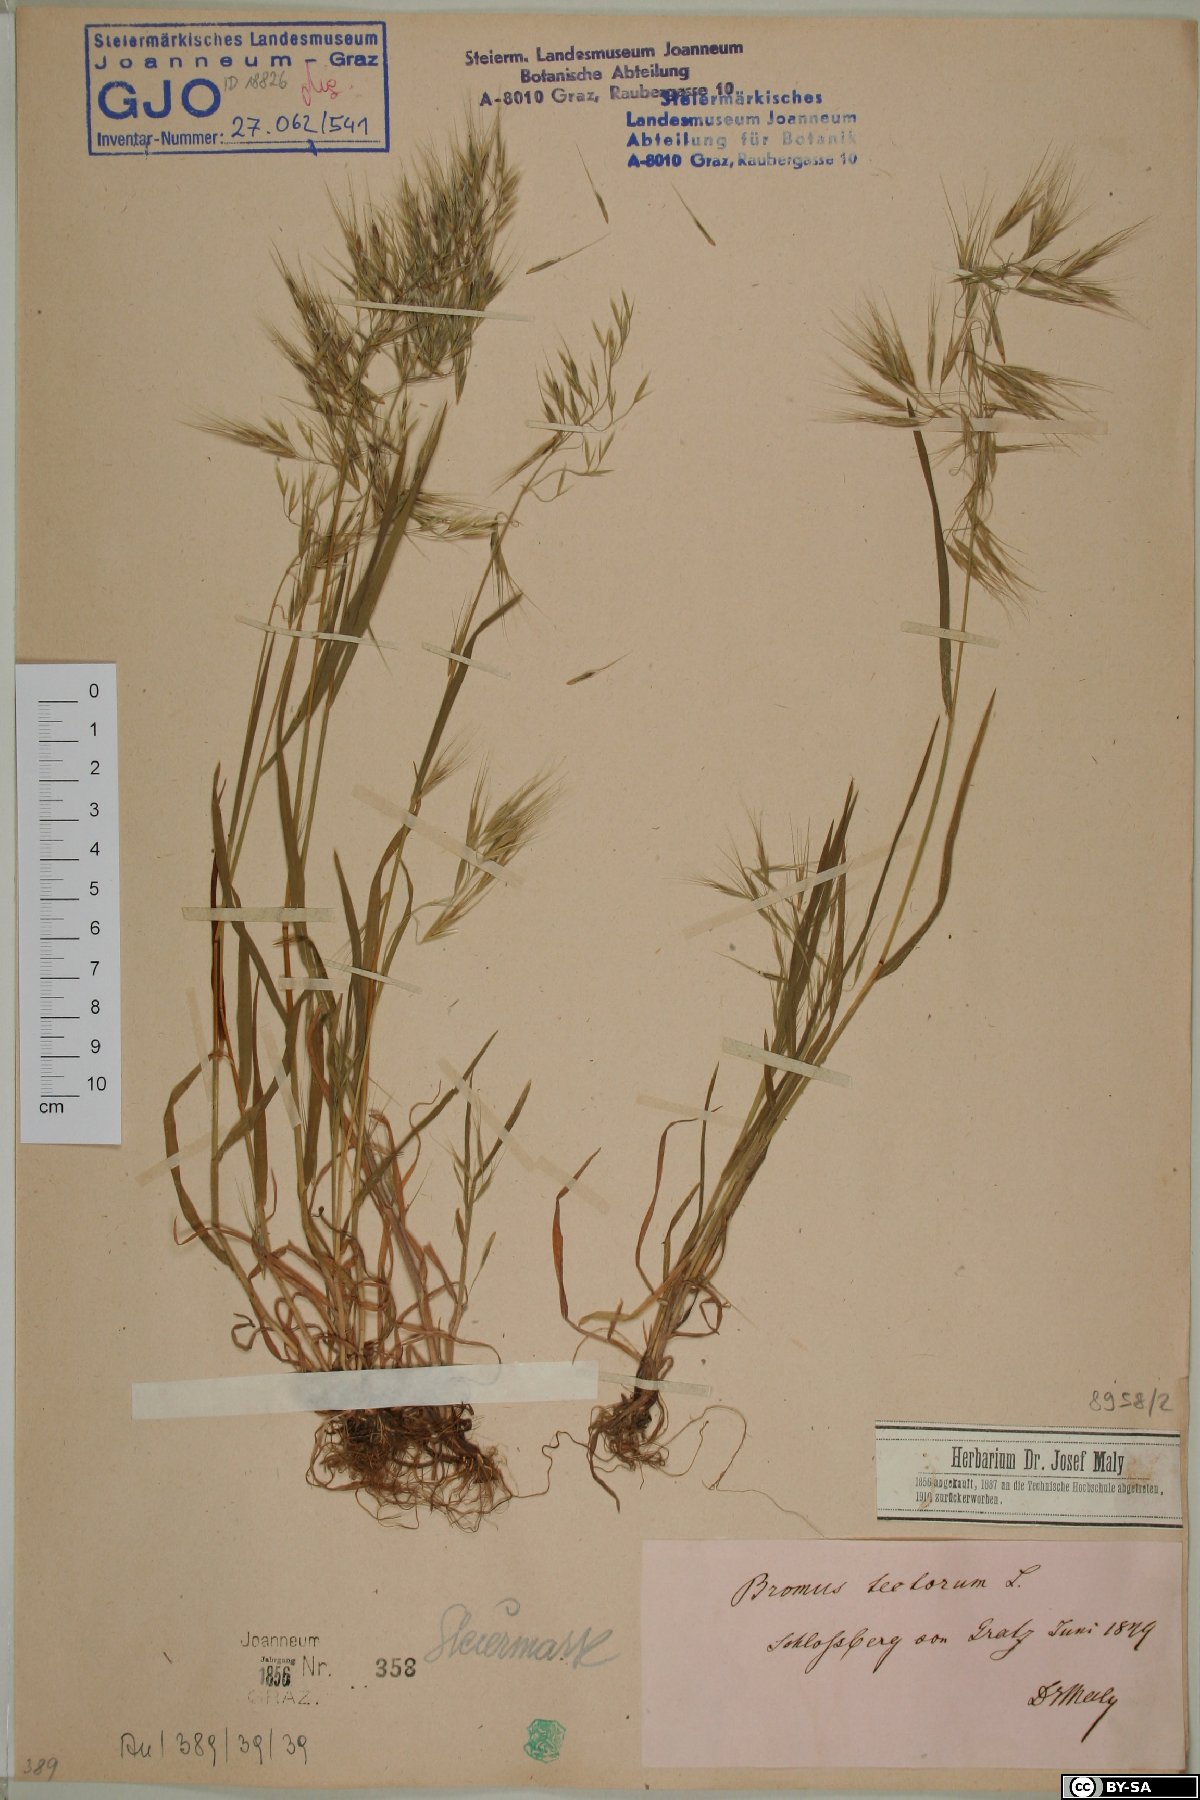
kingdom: Plantae
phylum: Tracheophyta
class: Liliopsida
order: Poales
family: Poaceae
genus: Bromus
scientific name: Bromus tectorum
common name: Cheatgrass
